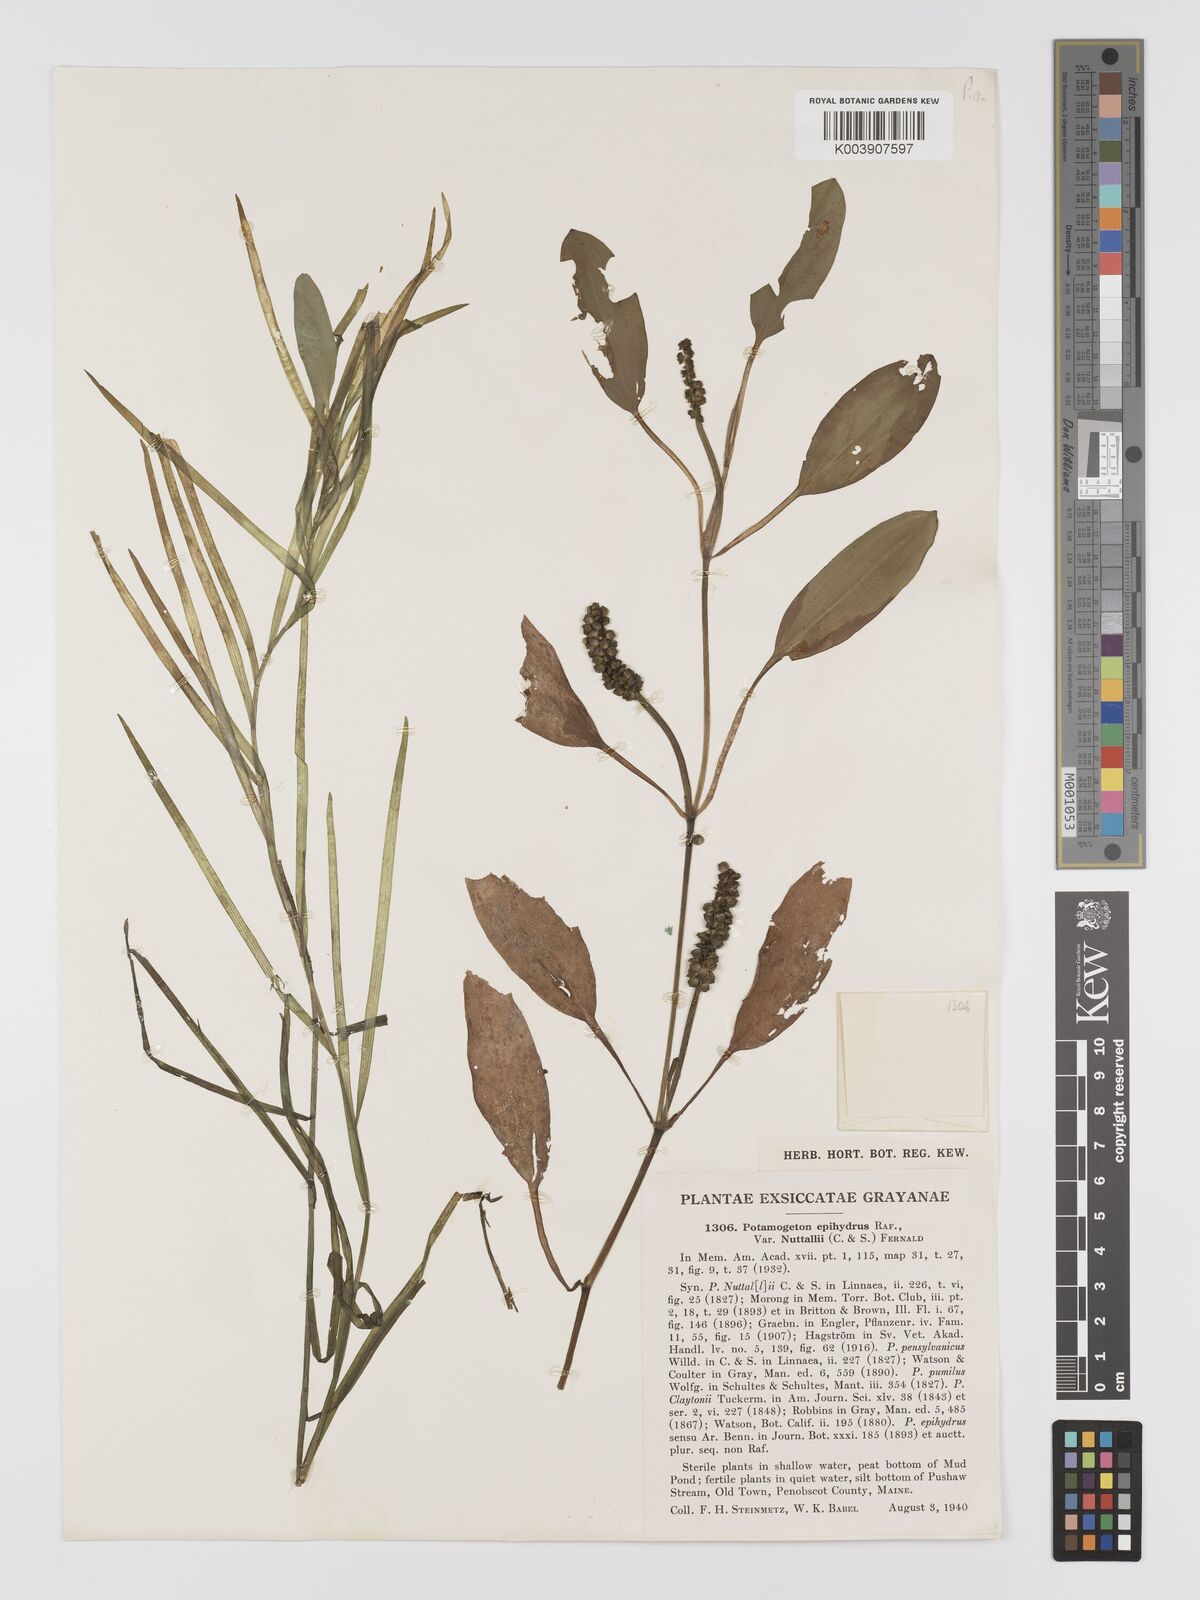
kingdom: Plantae
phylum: Tracheophyta
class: Liliopsida
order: Alismatales
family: Potamogetonaceae
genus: Potamogeton
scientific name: Potamogeton epihydrus
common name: American pondweed
